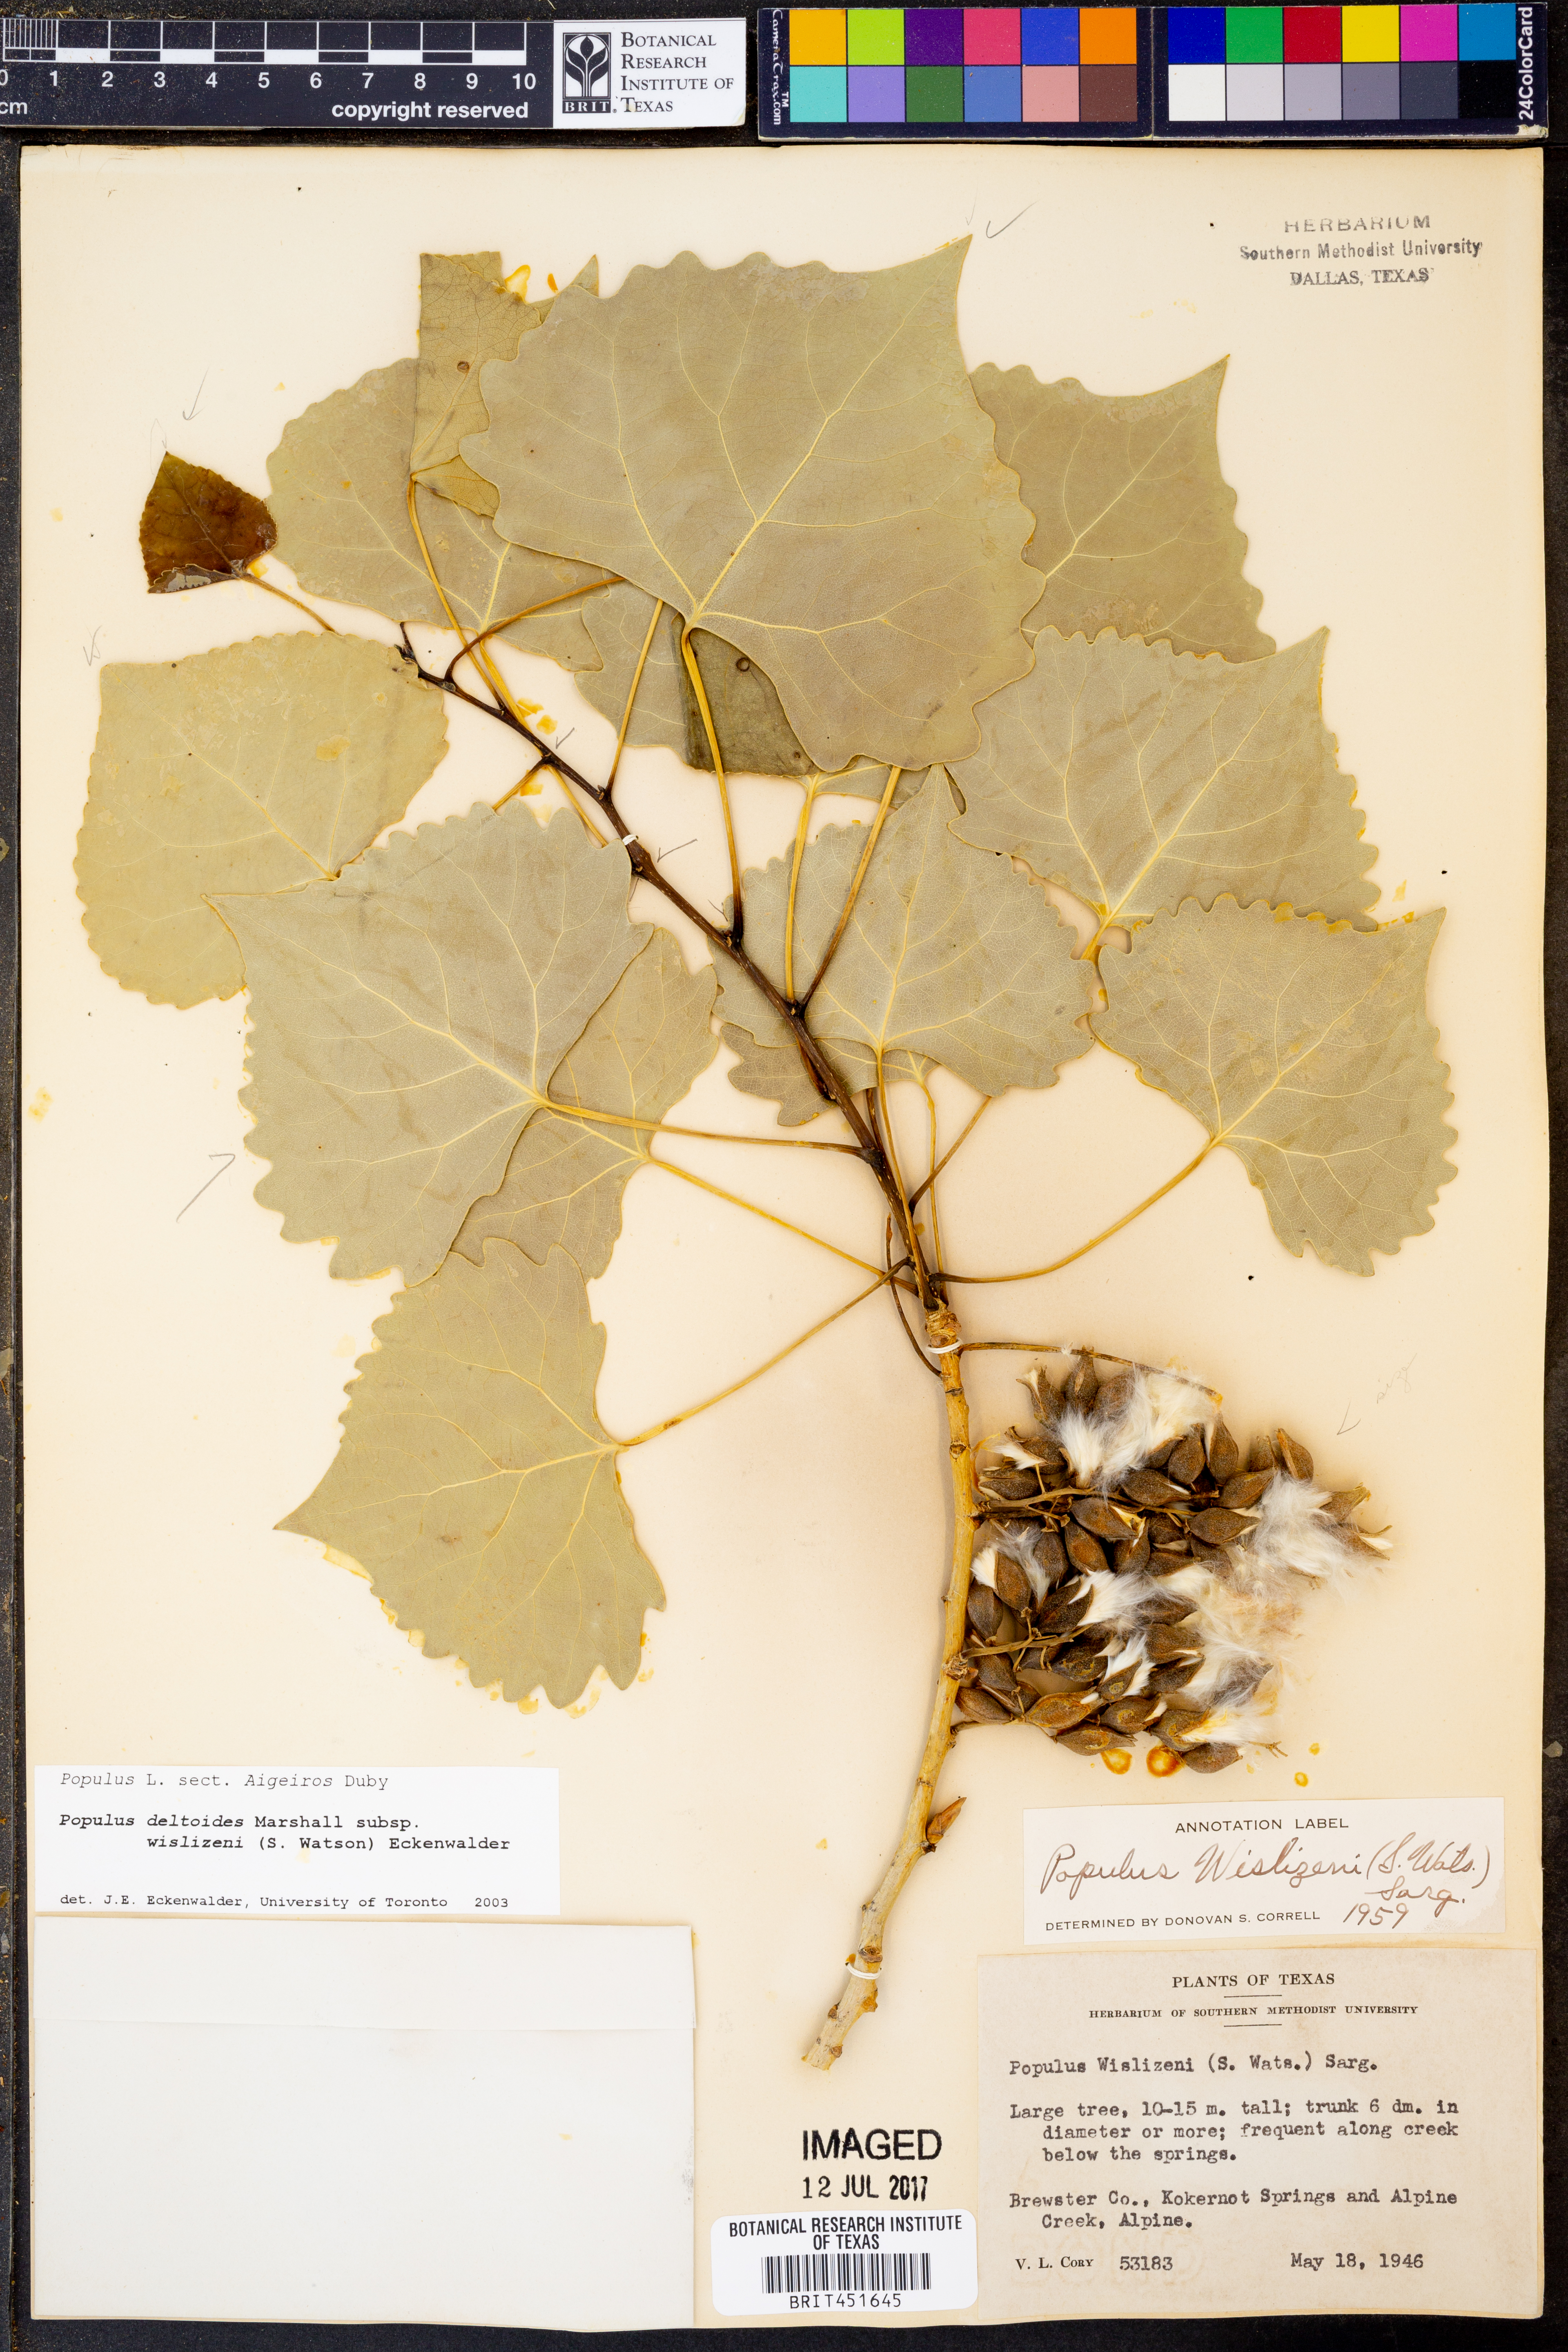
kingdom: Plantae
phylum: Tracheophyta
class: Magnoliopsida
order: Malpighiales
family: Salicaceae
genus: Populus
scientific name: Populus deltoides
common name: Eastern cottonwood
